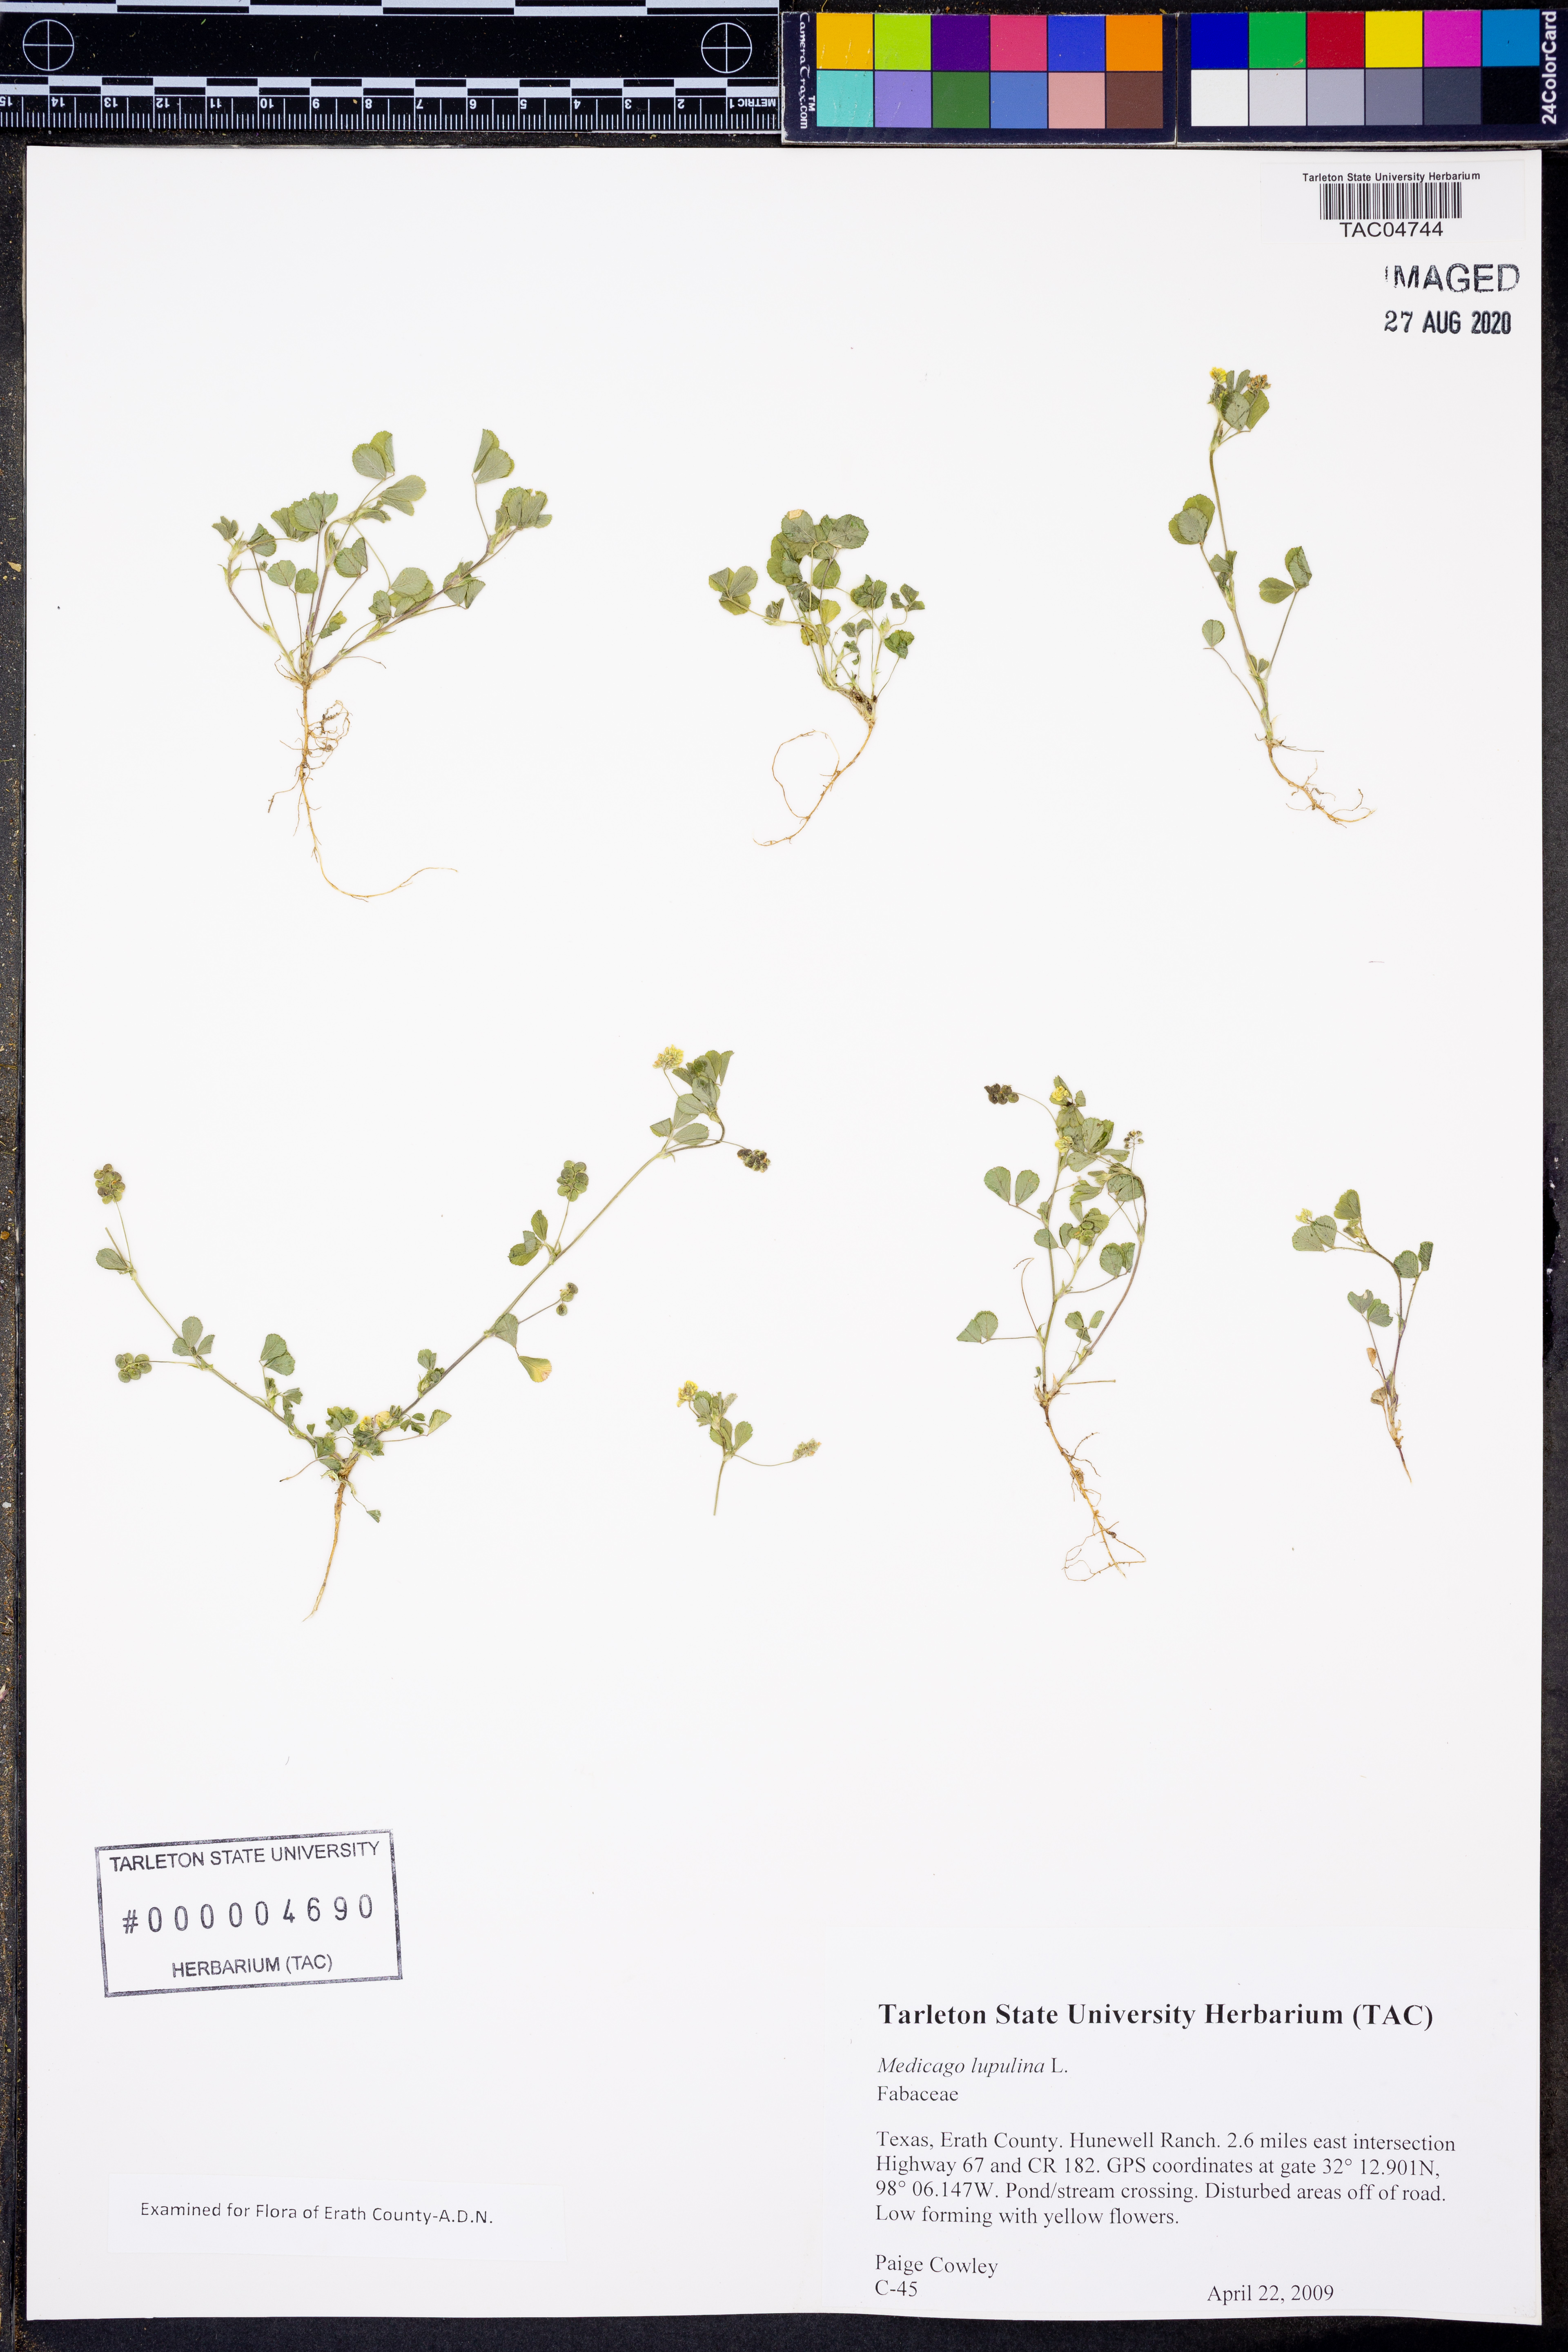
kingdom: Plantae
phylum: Tracheophyta
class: Magnoliopsida
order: Fabales
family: Fabaceae
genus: Medicago
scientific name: Medicago lupulina
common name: Black medick
